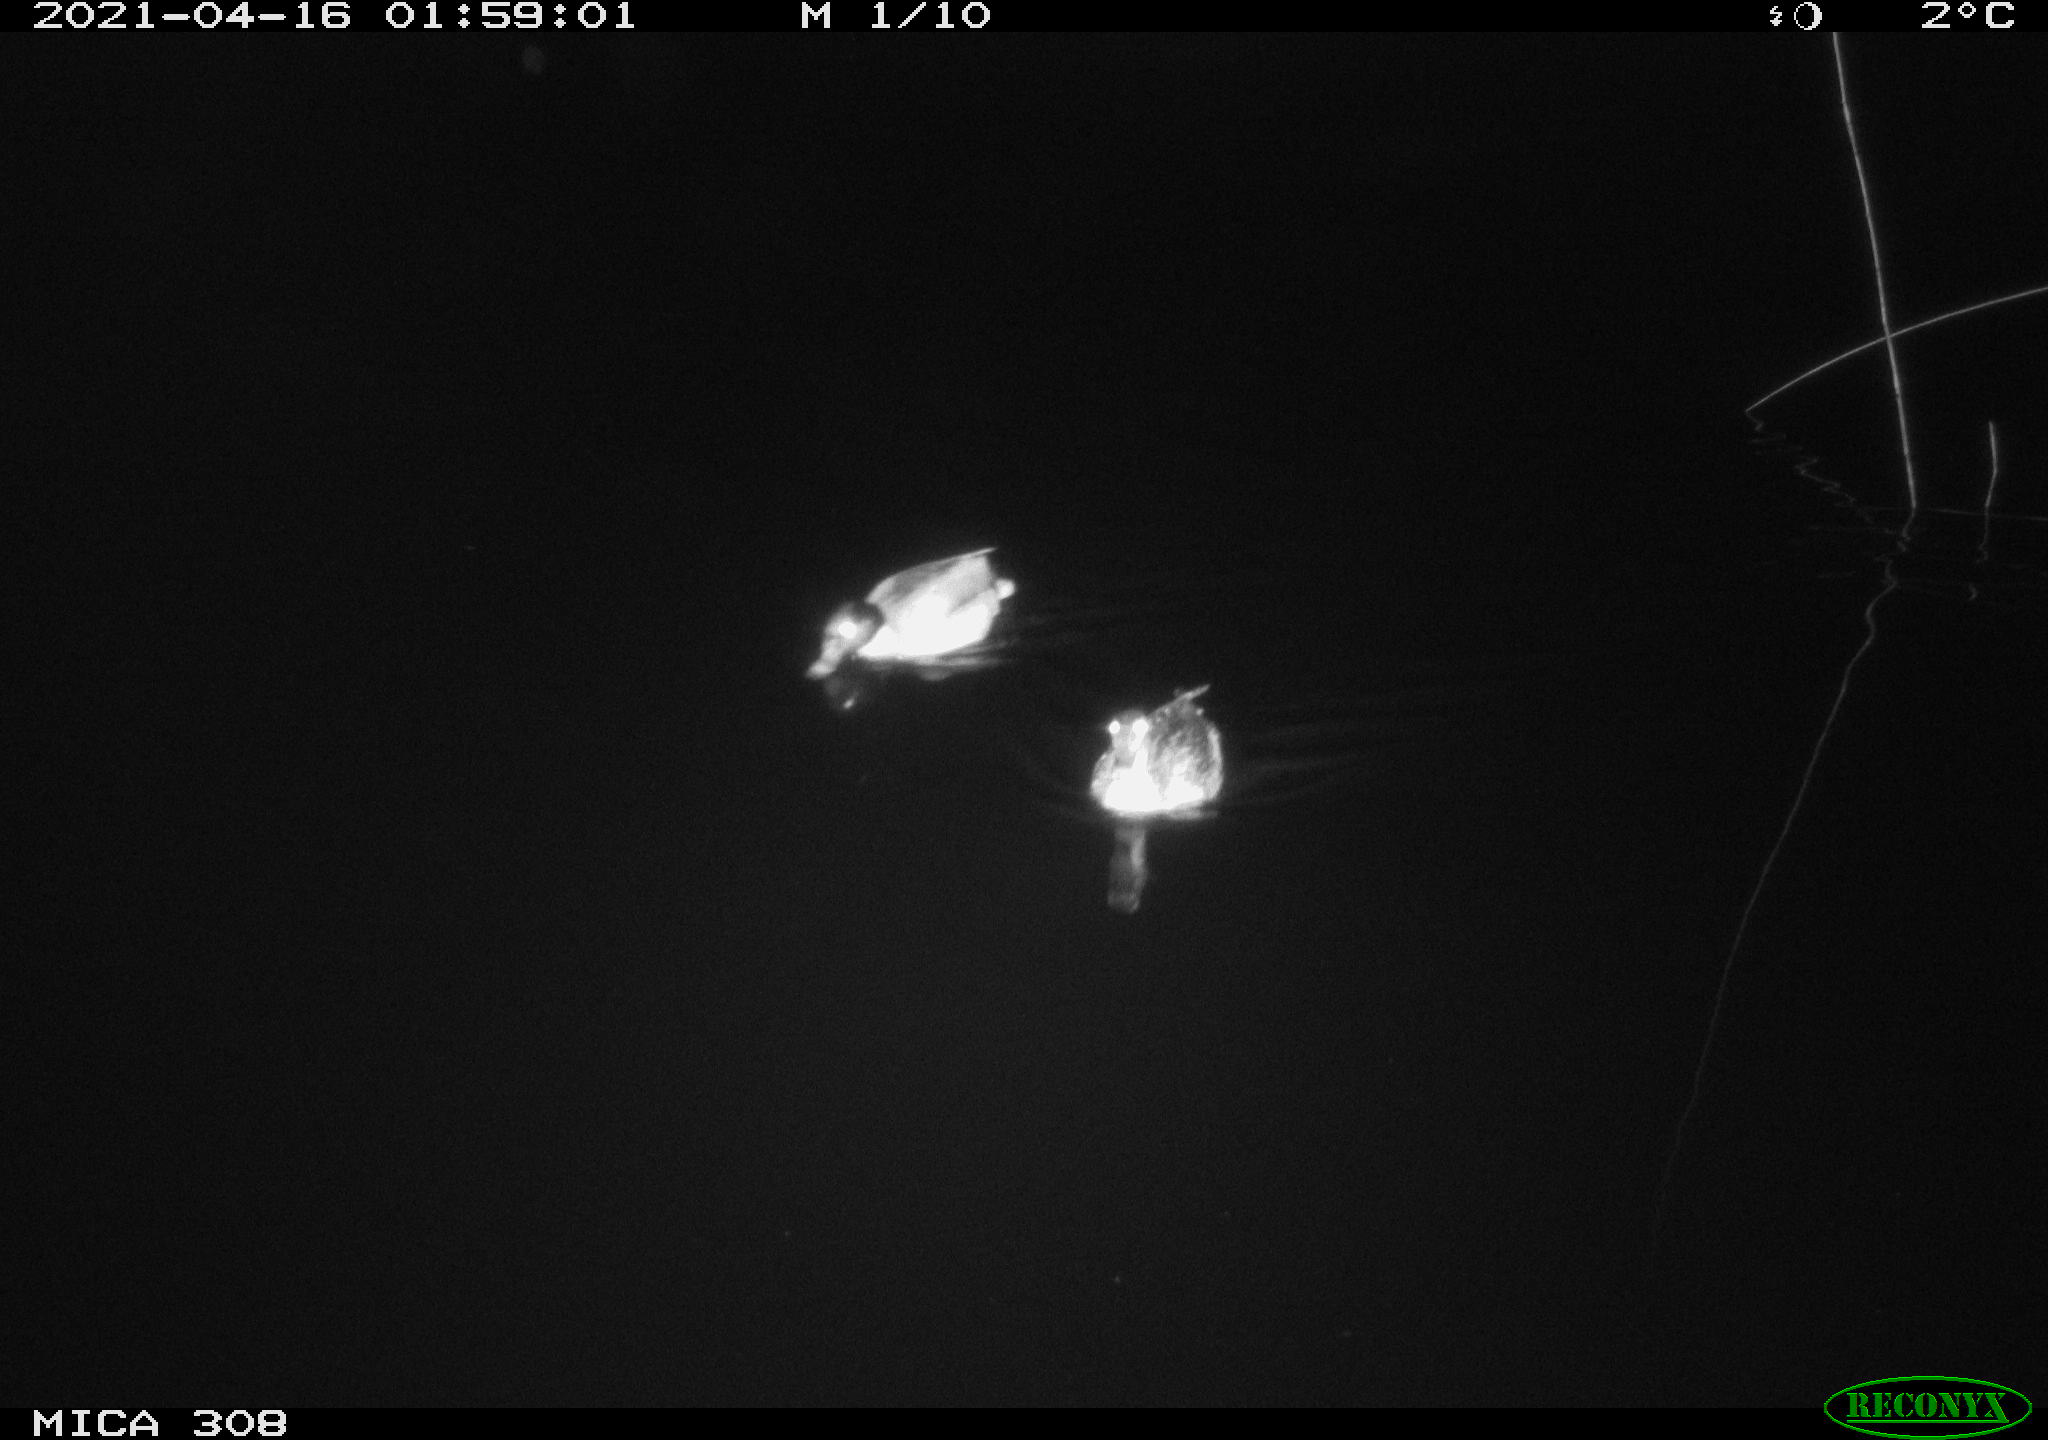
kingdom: Animalia
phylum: Chordata
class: Aves
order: Anseriformes
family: Anatidae
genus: Anas
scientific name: Anas platyrhynchos
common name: Mallard
